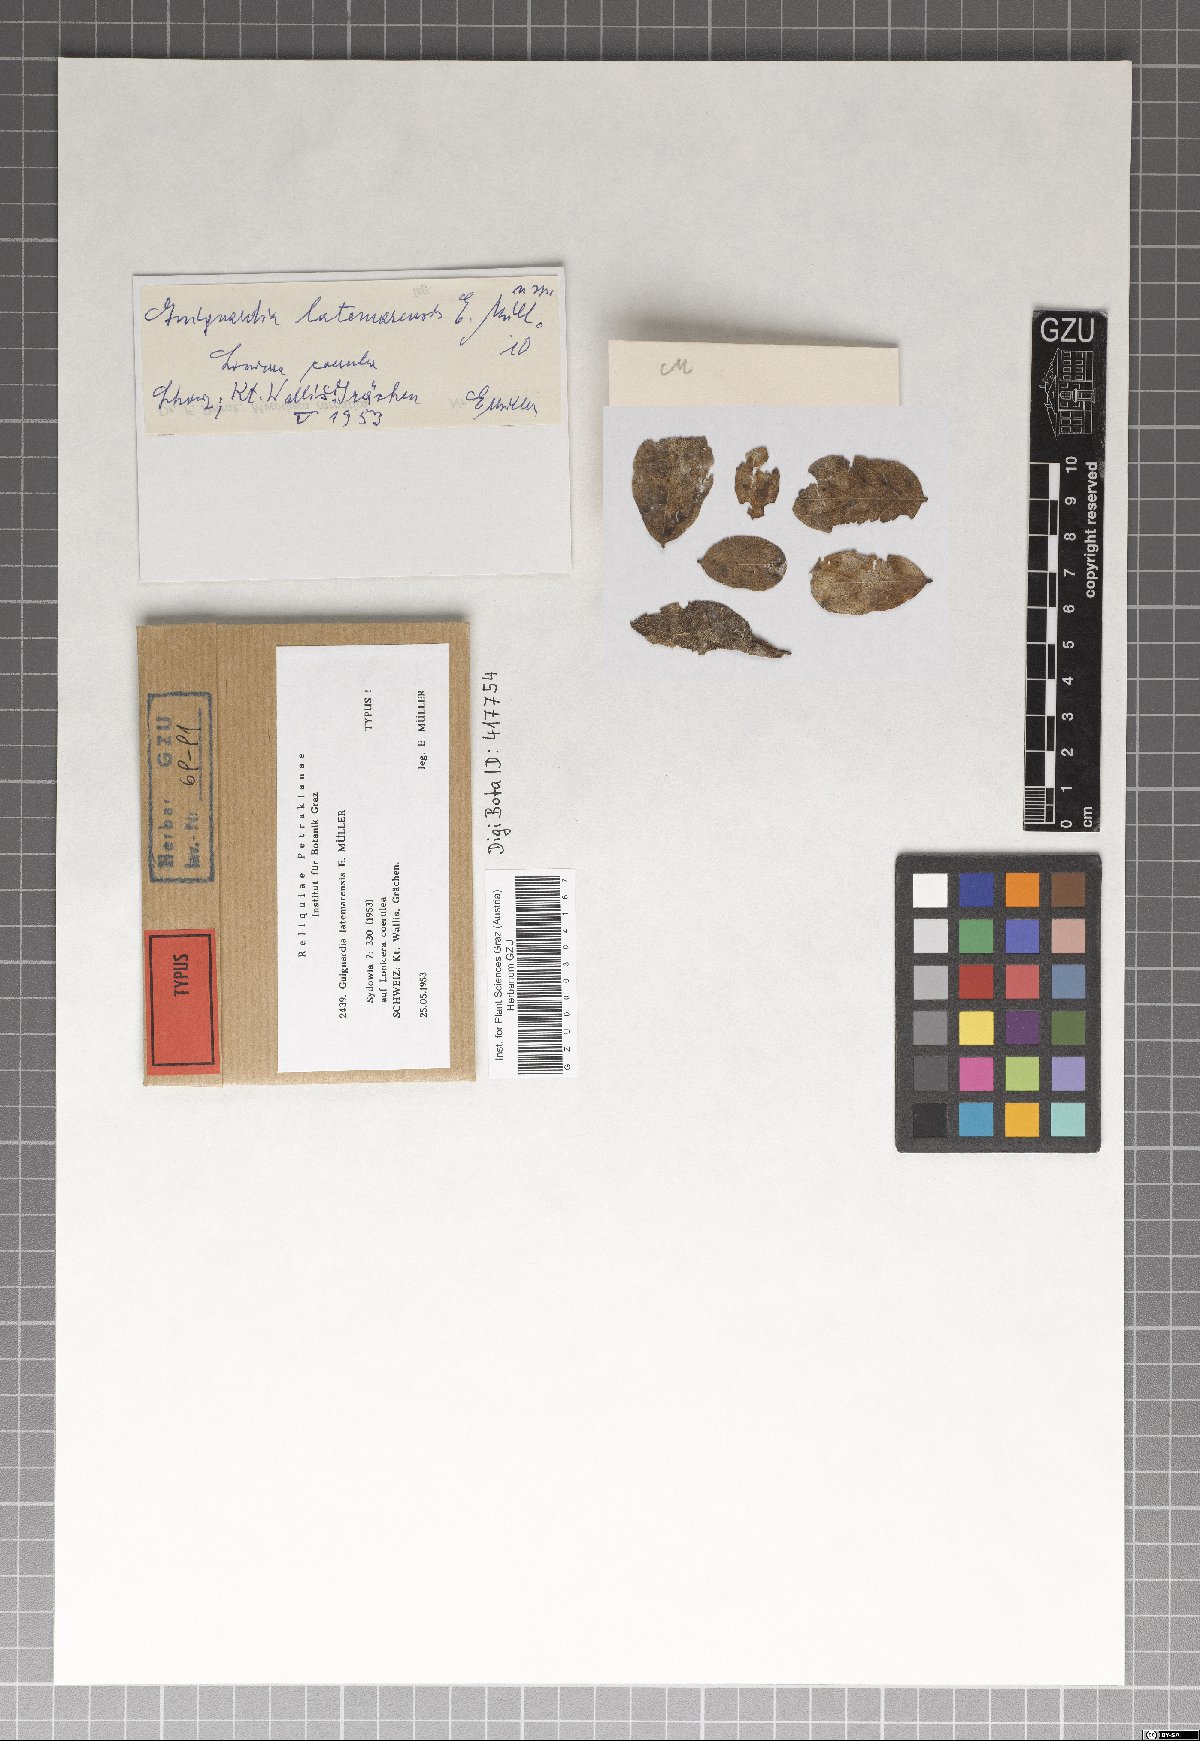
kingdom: Fungi
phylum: Ascomycota
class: Dothideomycetes
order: Botryosphaeriales
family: Phyllostictaceae
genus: Guignardia
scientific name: Guignardia latemarensis
